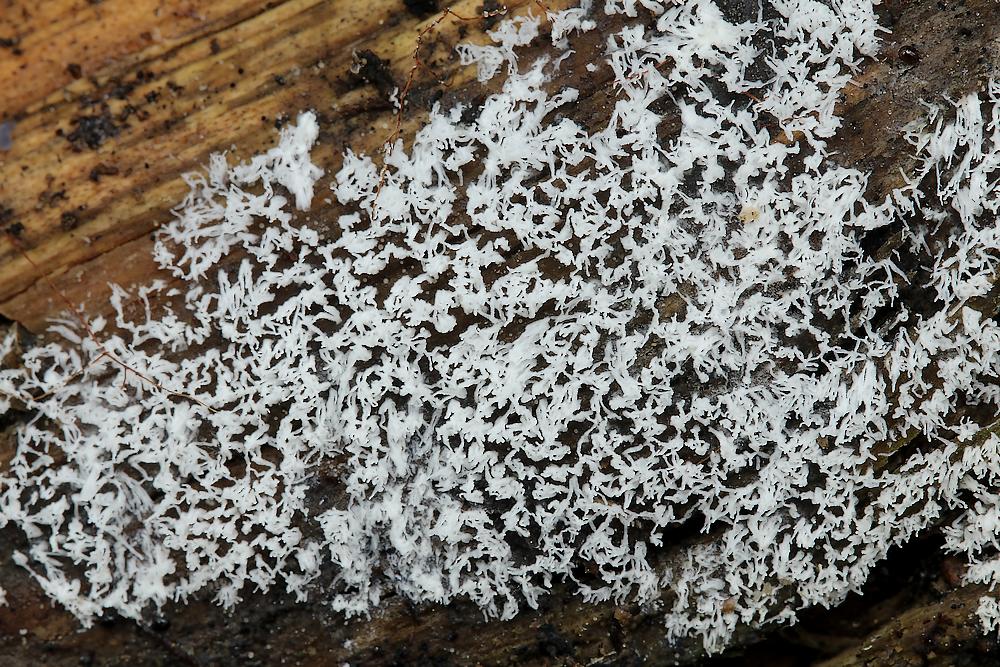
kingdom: Protozoa
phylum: Mycetozoa
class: Protosteliomycetes
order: Ceratiomyxales
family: Ceratiomyxaceae
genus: Ceratiomyxa
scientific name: Ceratiomyxa fruticulosa
